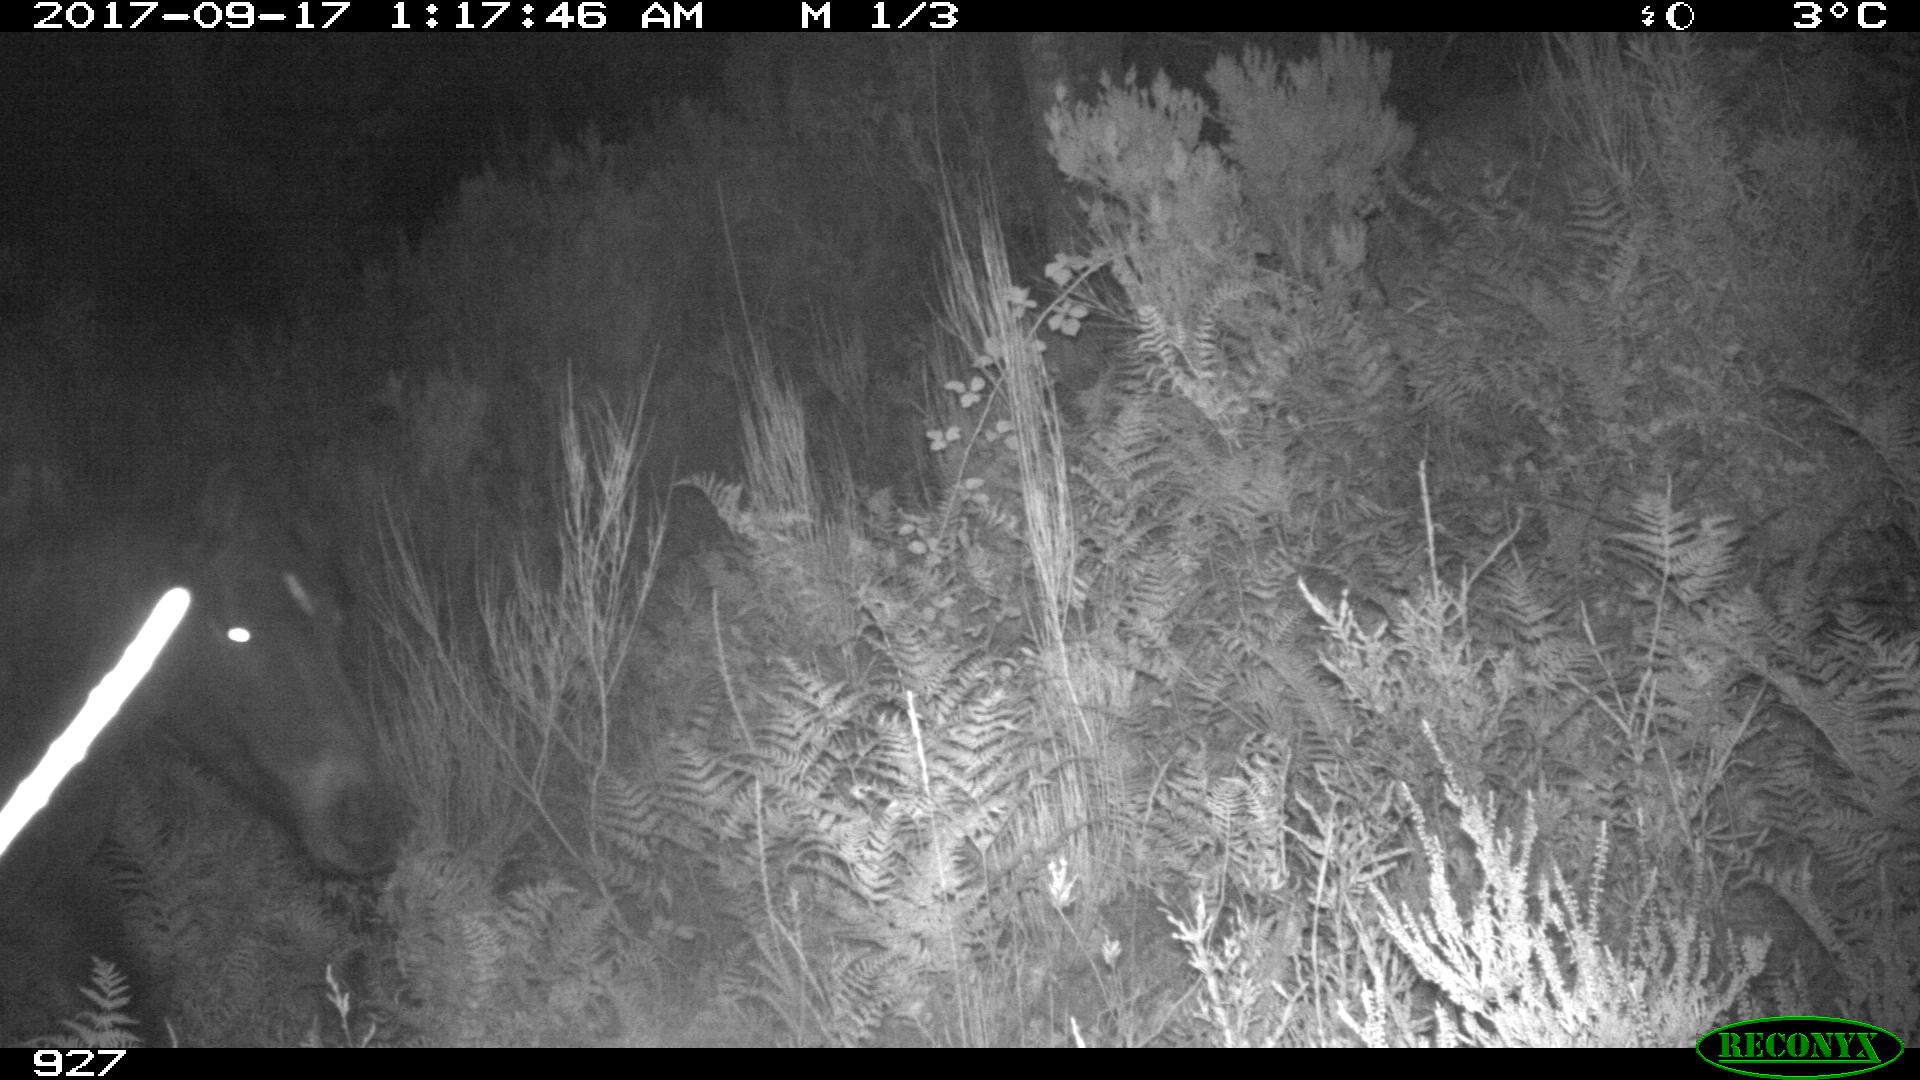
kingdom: Animalia
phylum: Chordata
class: Mammalia
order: Perissodactyla
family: Equidae
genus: Equus
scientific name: Equus caballus
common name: Horse
